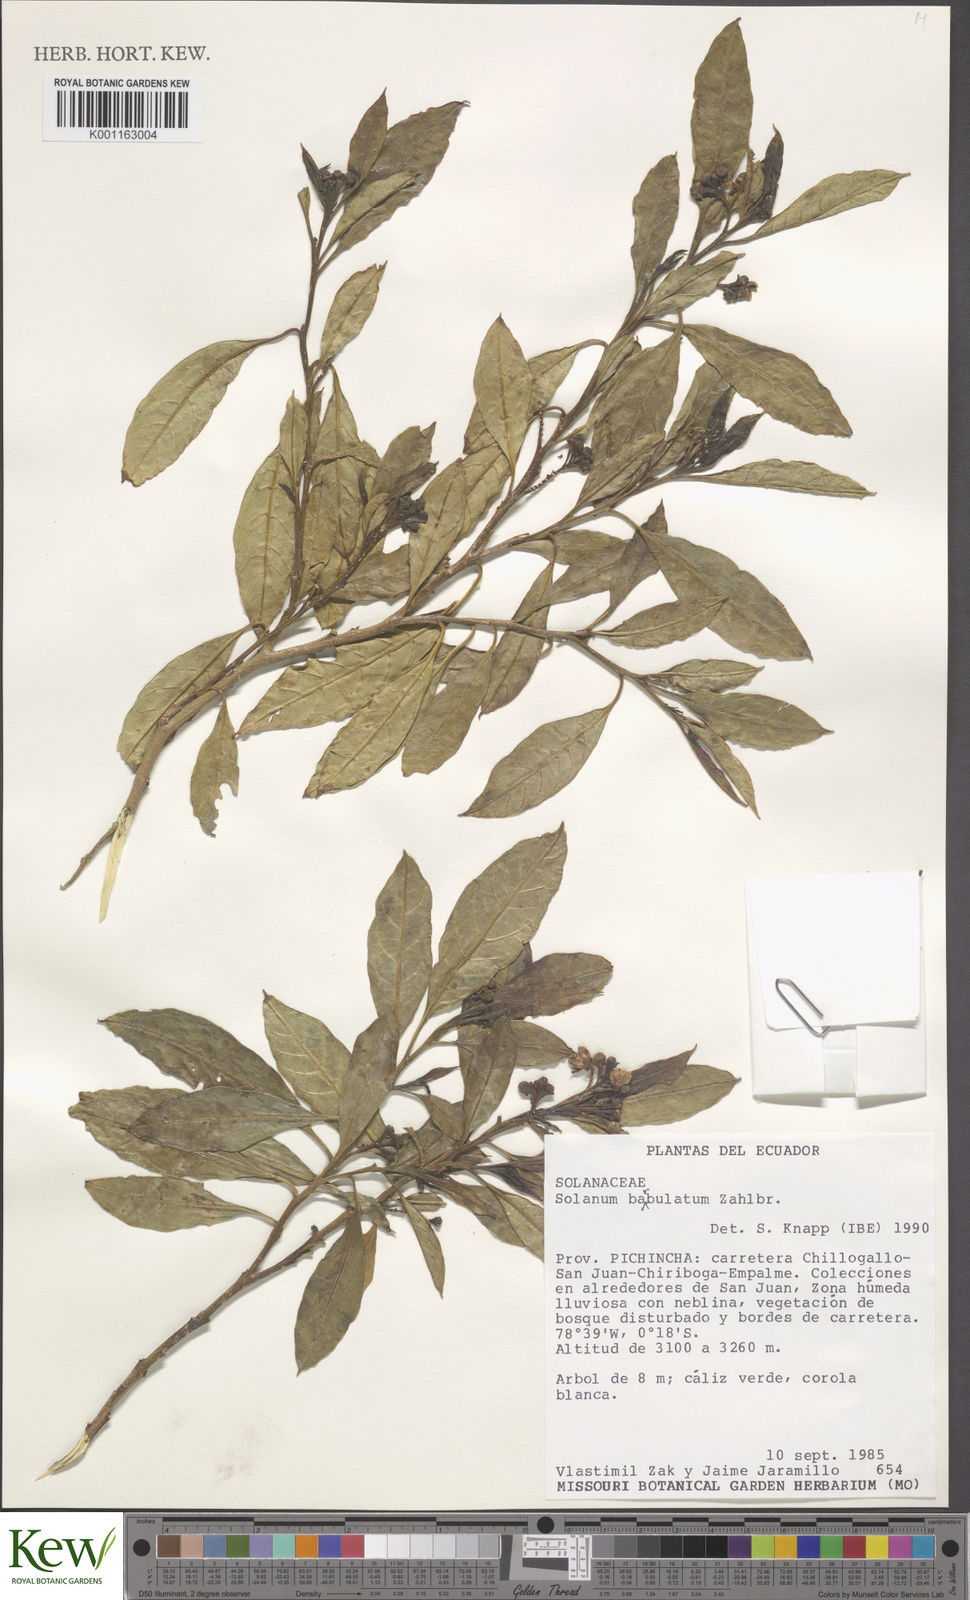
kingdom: Plantae
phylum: Tracheophyta
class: Magnoliopsida
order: Solanales
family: Solanaceae
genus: Solanum
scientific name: Solanum barbulatum
